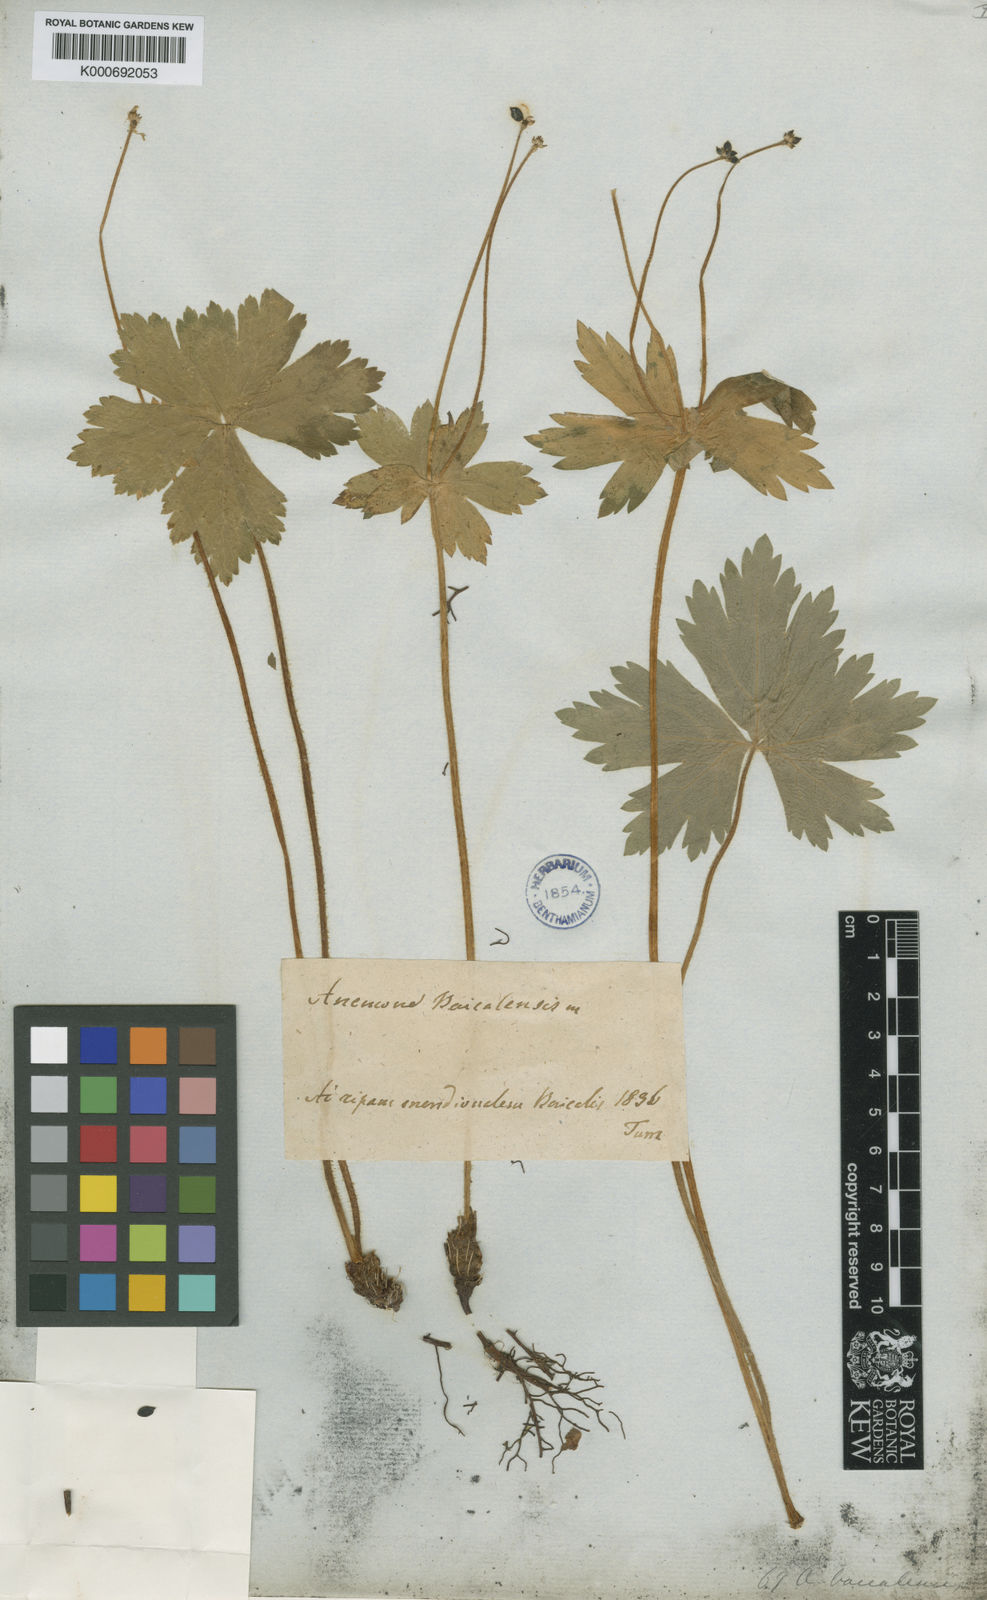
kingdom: Plantae
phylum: Tracheophyta
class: Magnoliopsida
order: Ranunculales
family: Ranunculaceae
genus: Anemonastrum
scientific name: Anemonastrum baicalense
